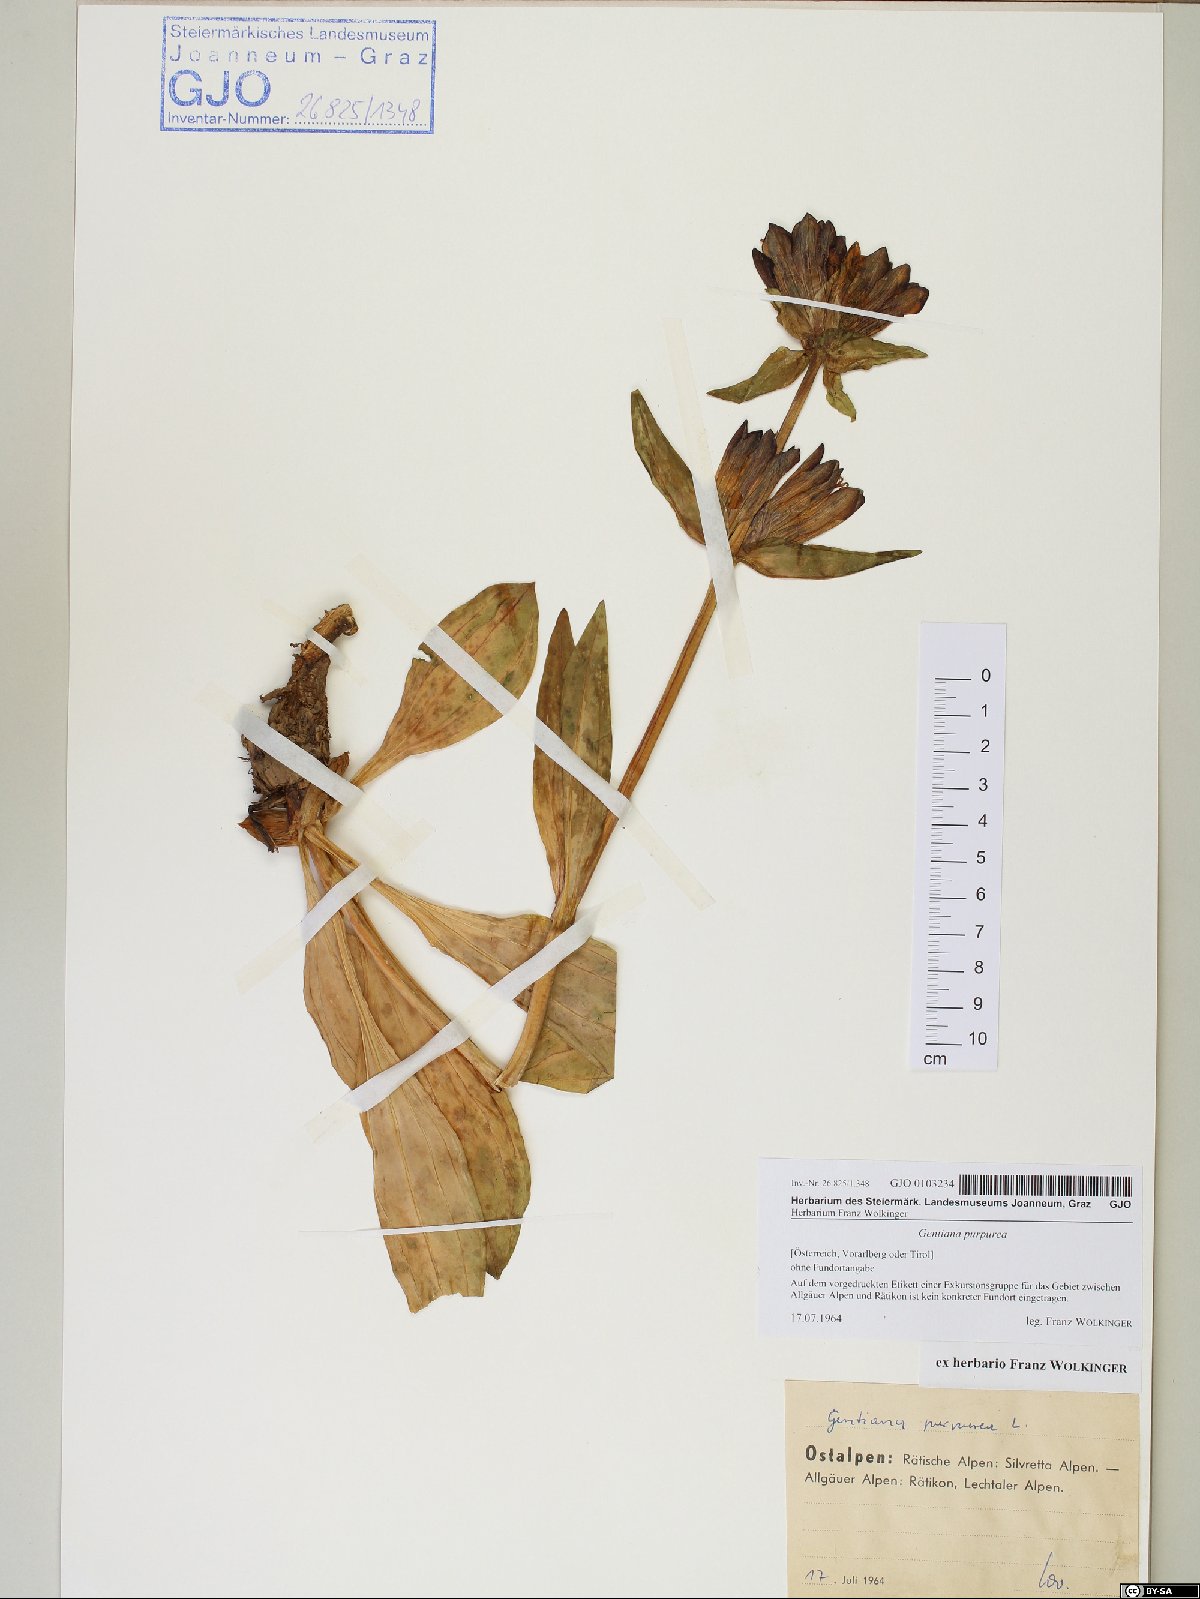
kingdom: Plantae
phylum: Tracheophyta
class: Magnoliopsida
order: Gentianales
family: Gentianaceae
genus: Gentiana
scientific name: Gentiana purpurea
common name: Purple gentian
